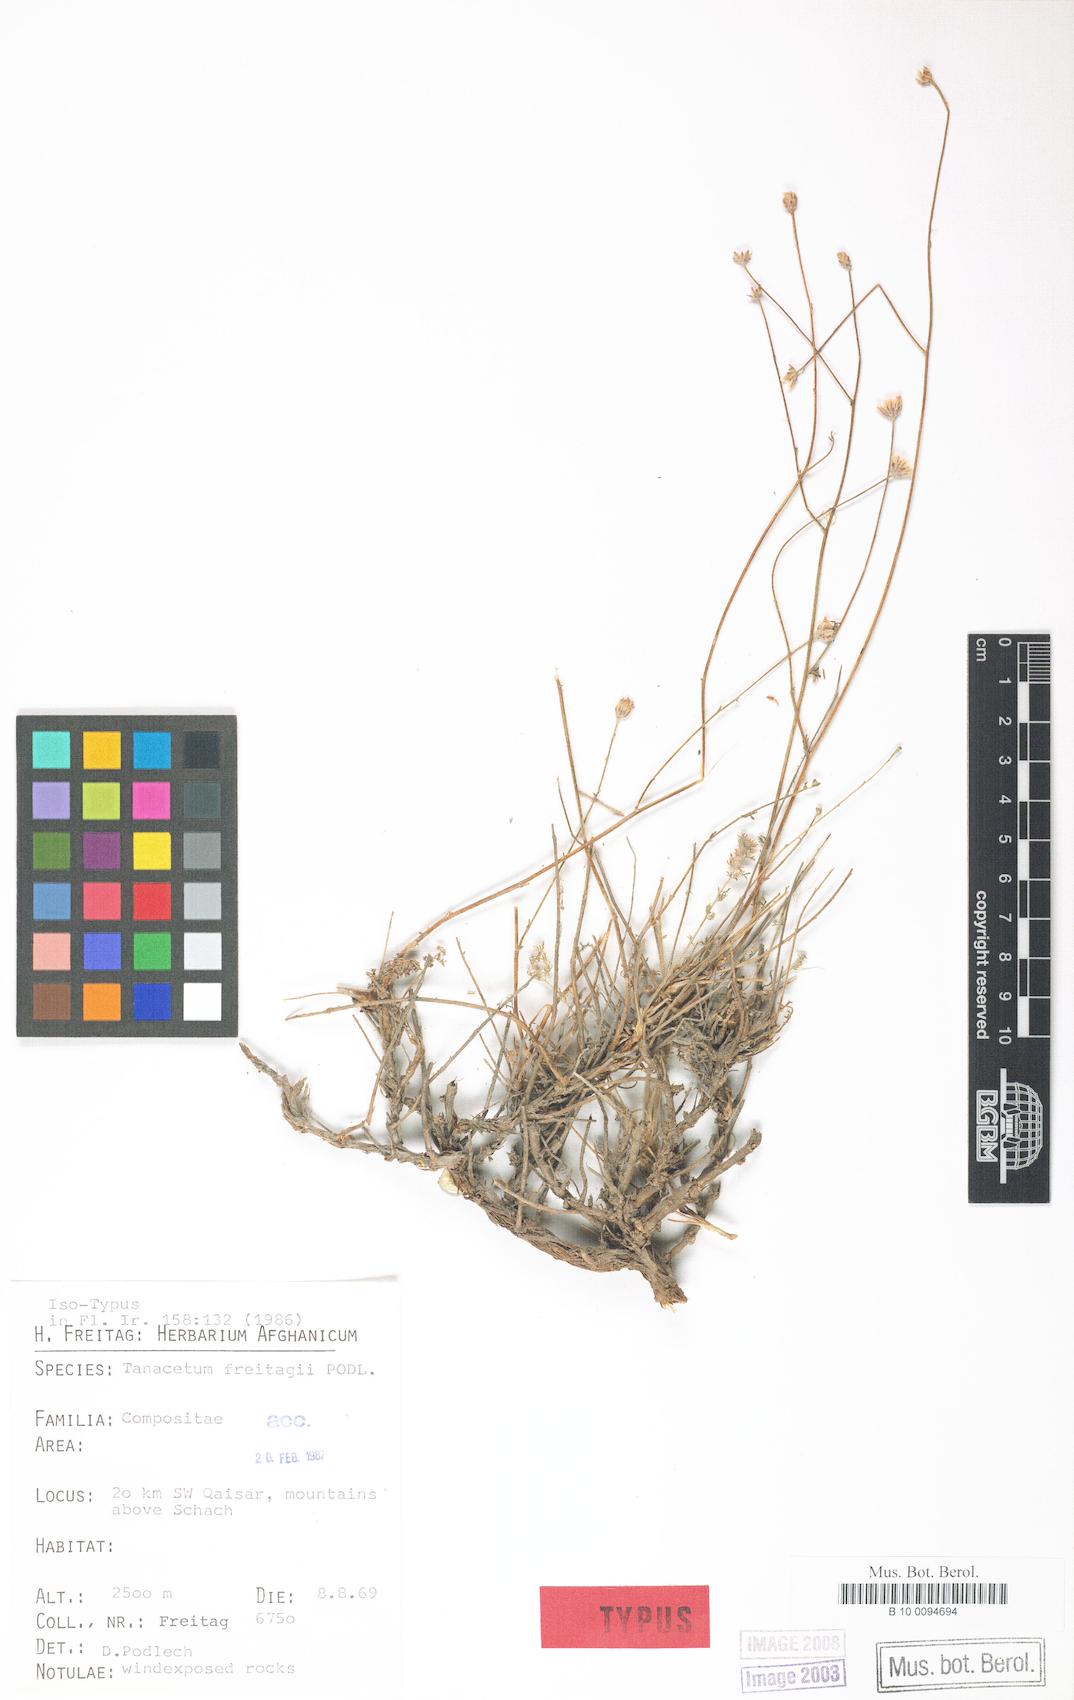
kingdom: Plantae
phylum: Tracheophyta
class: Magnoliopsida
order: Asterales
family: Asteraceae
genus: Tanacetopsis
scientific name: Tanacetopsis freitagii
